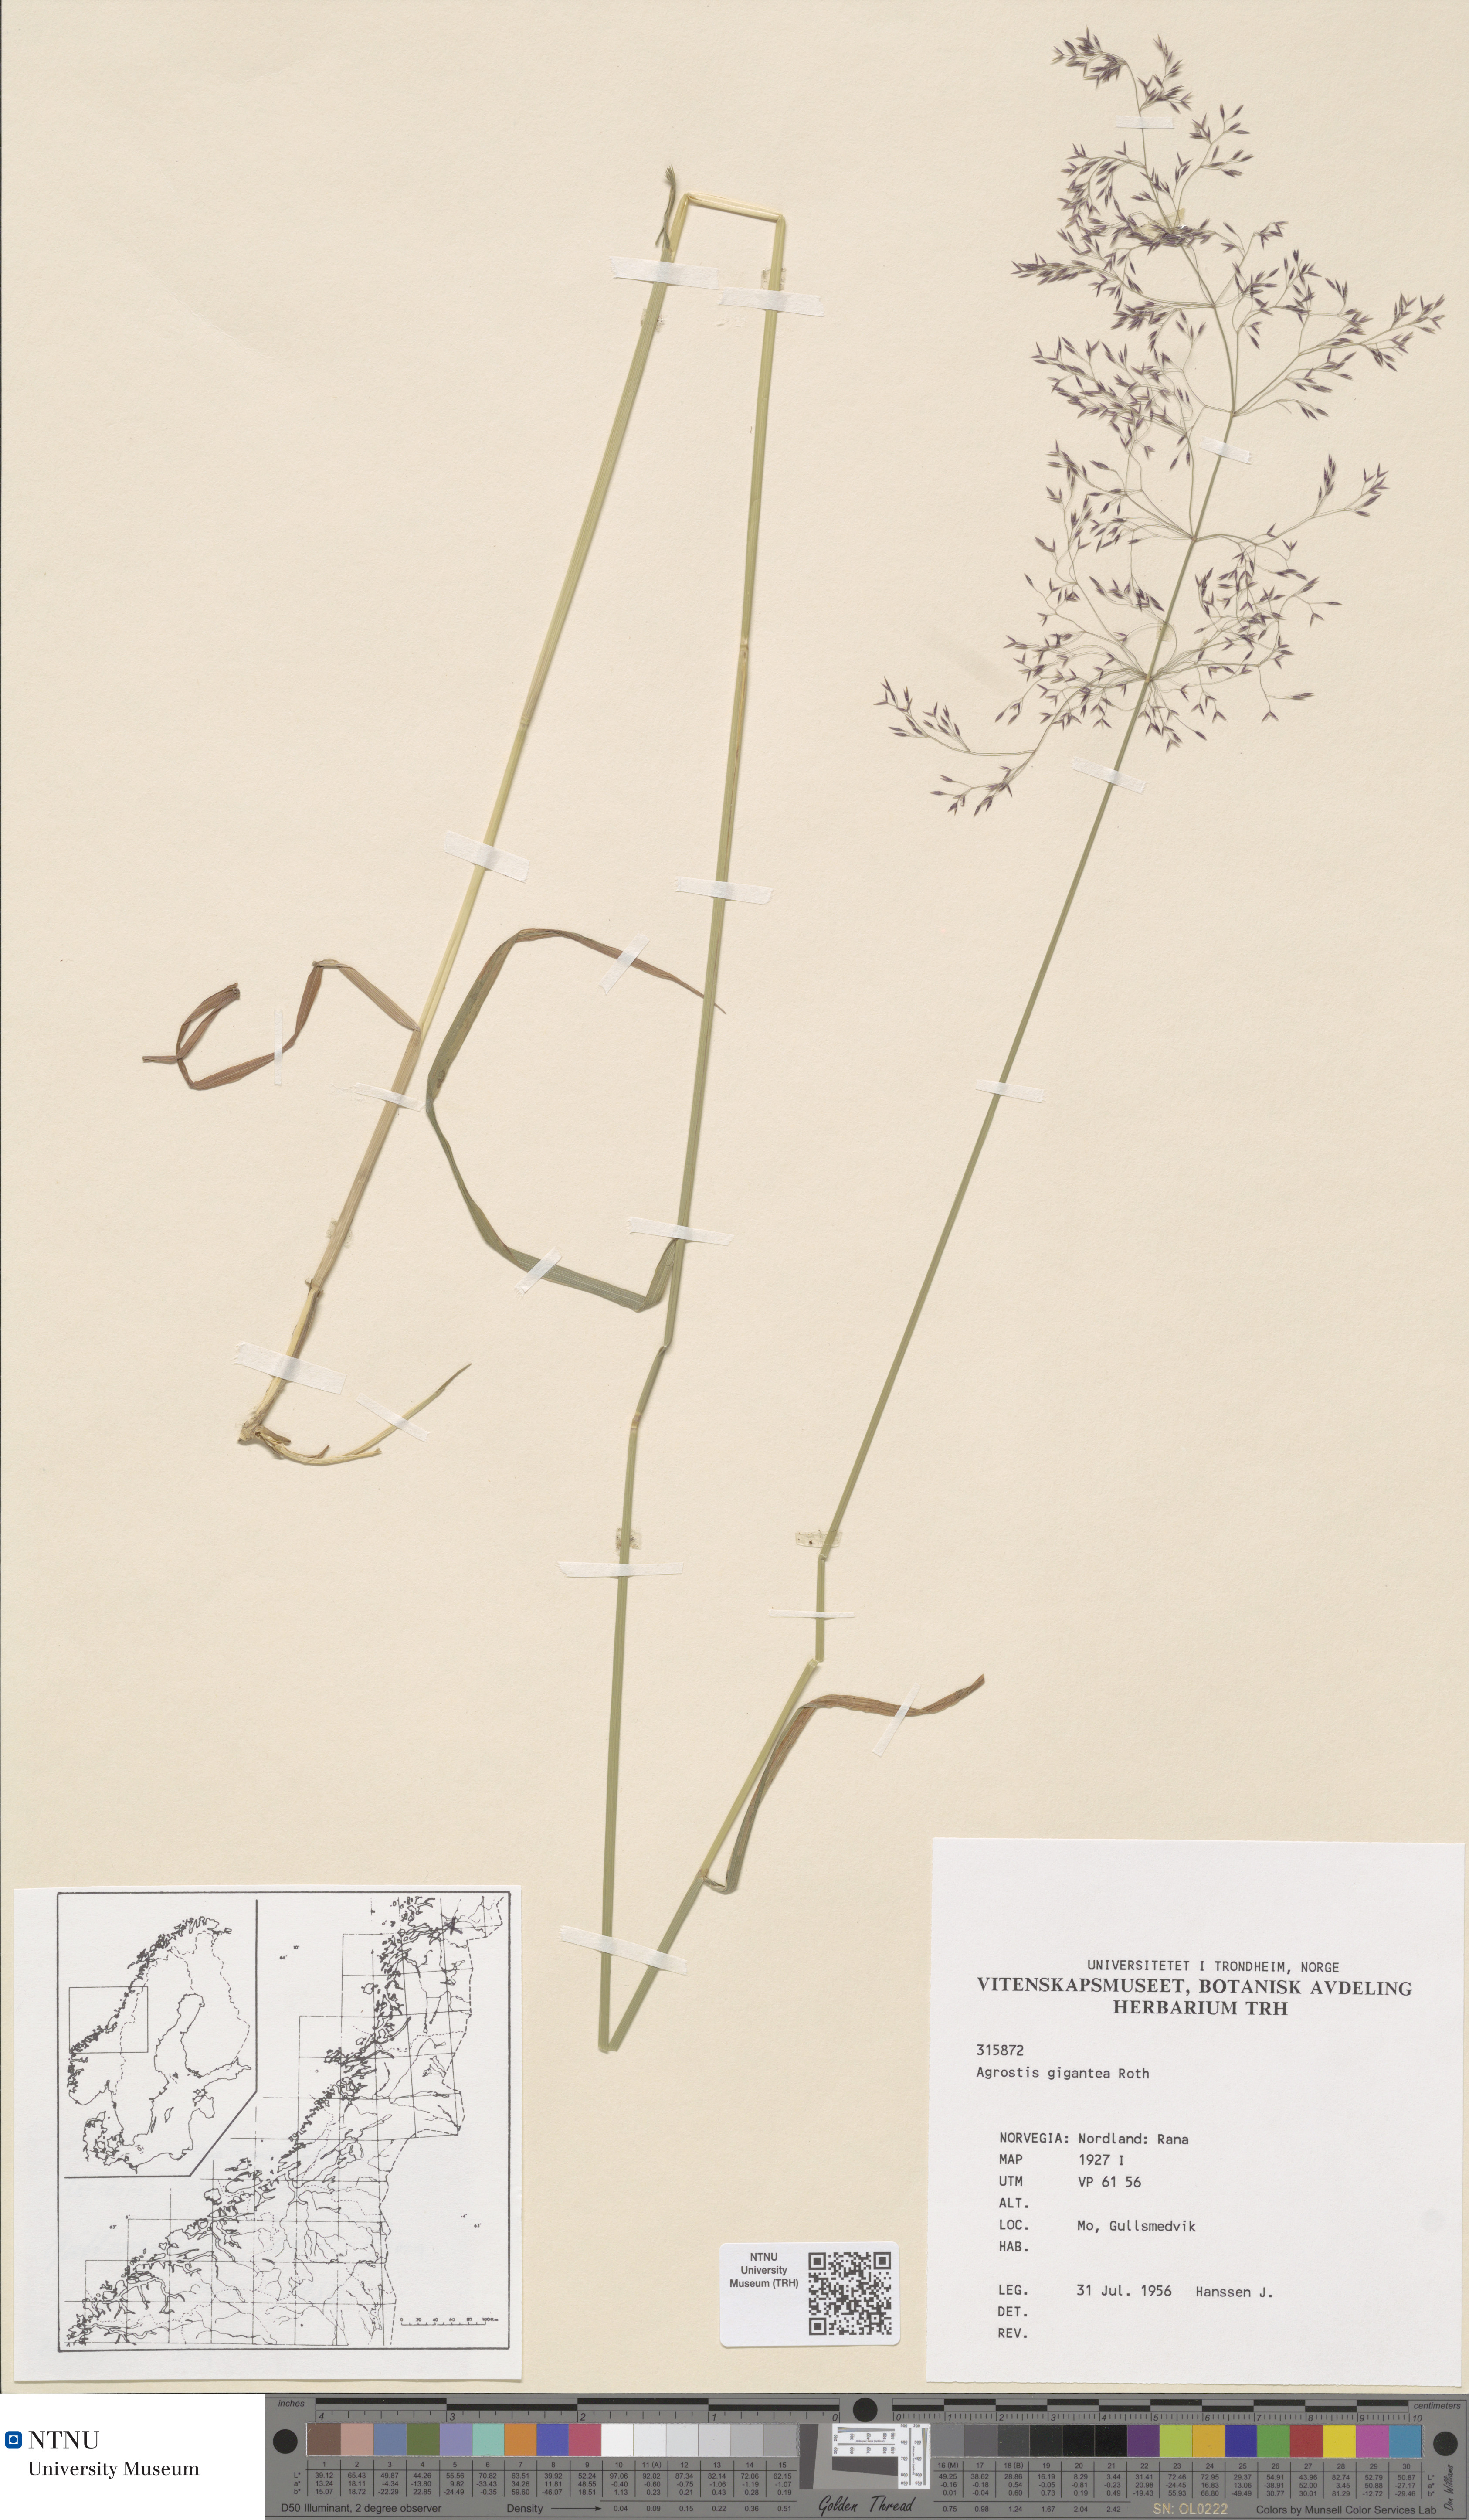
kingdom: Plantae
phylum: Tracheophyta
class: Liliopsida
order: Poales
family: Poaceae
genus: Agrostis
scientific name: Agrostis gigantea
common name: Black bent
